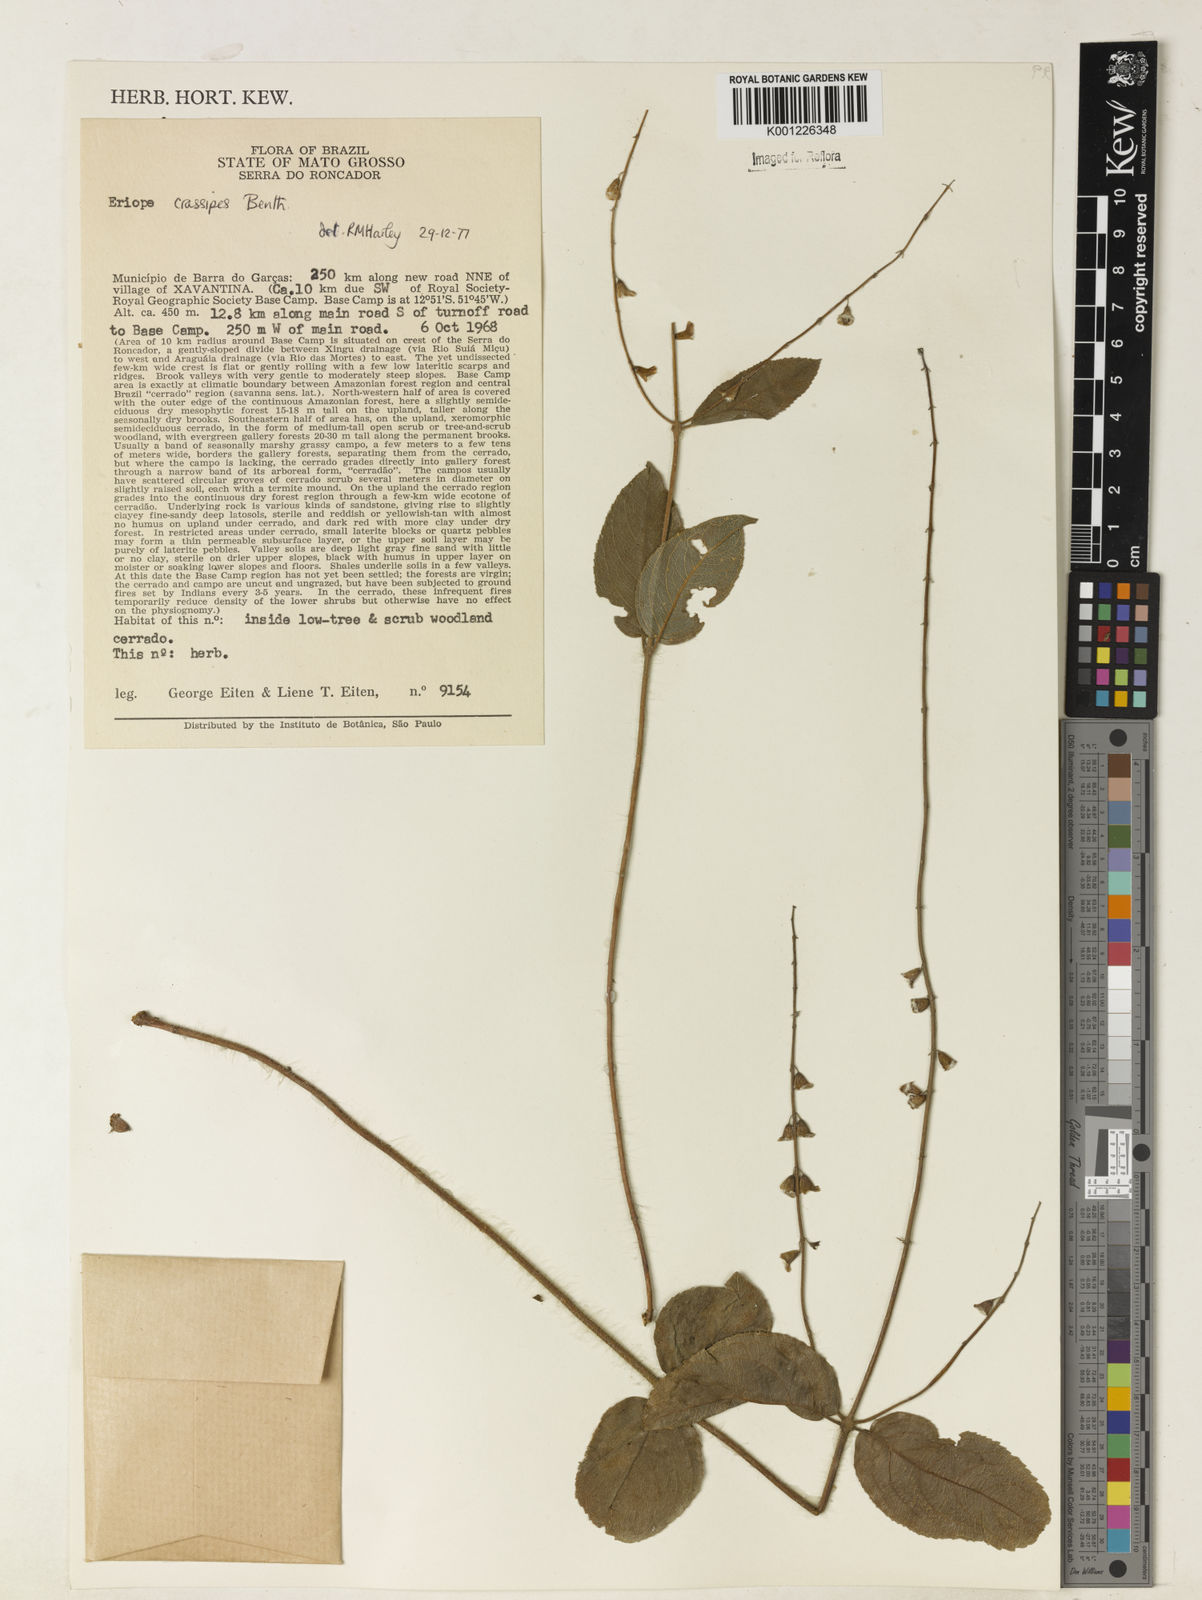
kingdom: Plantae
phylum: Tracheophyta
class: Magnoliopsida
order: Lamiales
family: Lamiaceae
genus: Eriope
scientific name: Eriope crassipes
